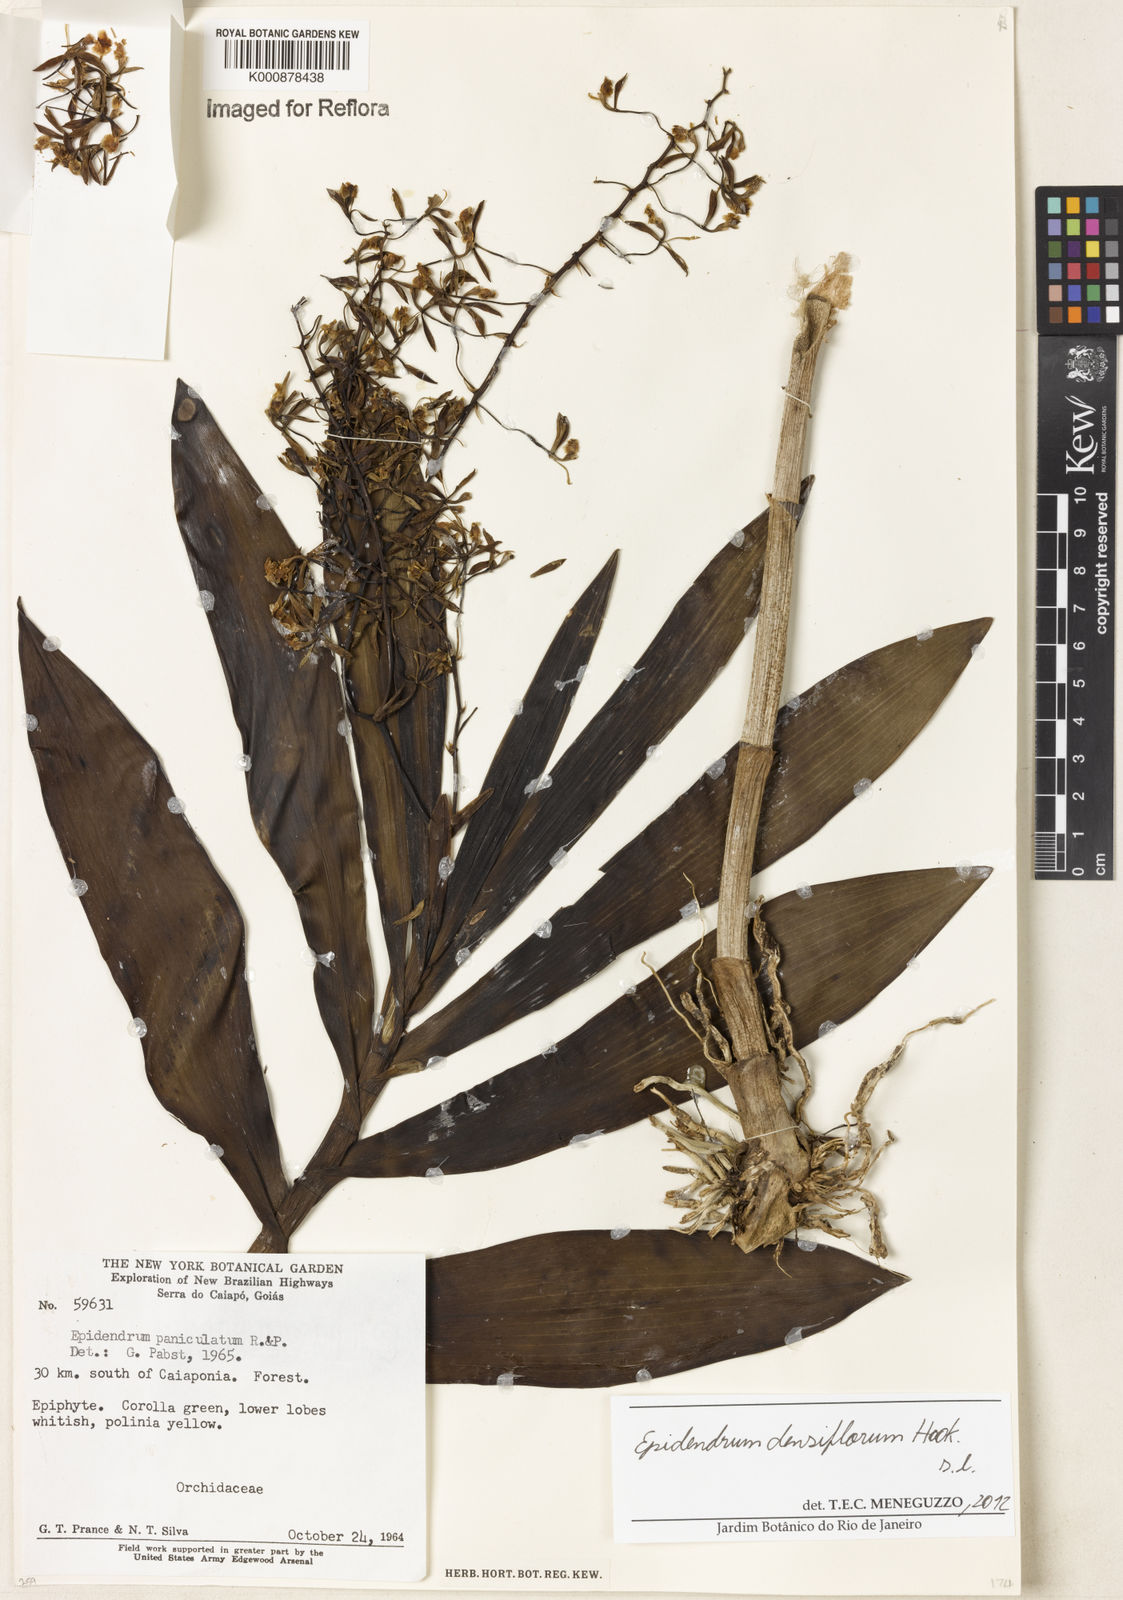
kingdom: Plantae
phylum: Tracheophyta
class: Liliopsida
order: Asparagales
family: Orchidaceae
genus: Epidendrum
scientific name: Epidendrum densiflorum
